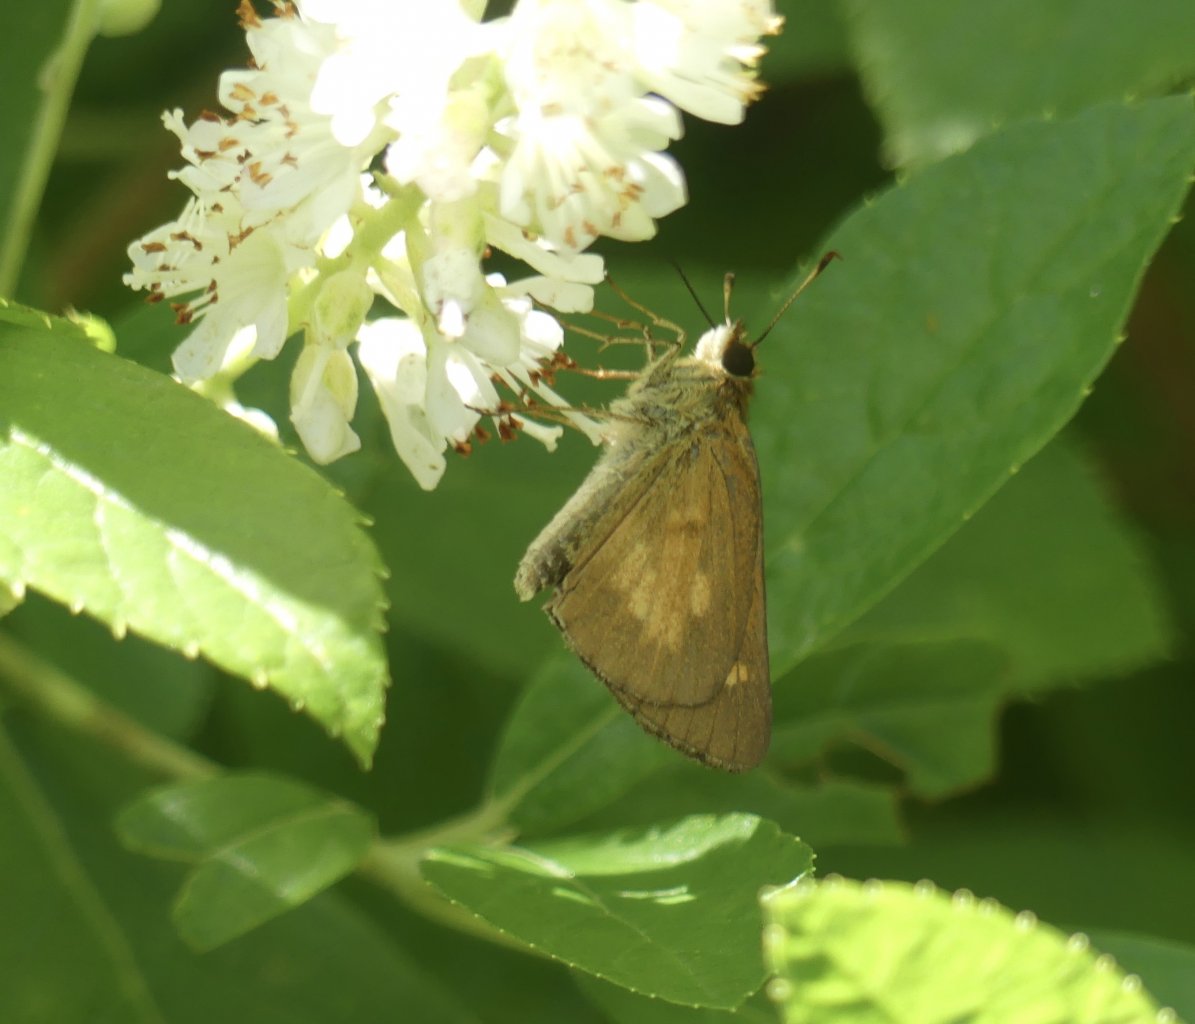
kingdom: Animalia
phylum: Arthropoda
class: Insecta
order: Lepidoptera
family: Hesperiidae
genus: Poanes
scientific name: Poanes viator
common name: Broad-winged Skipper
